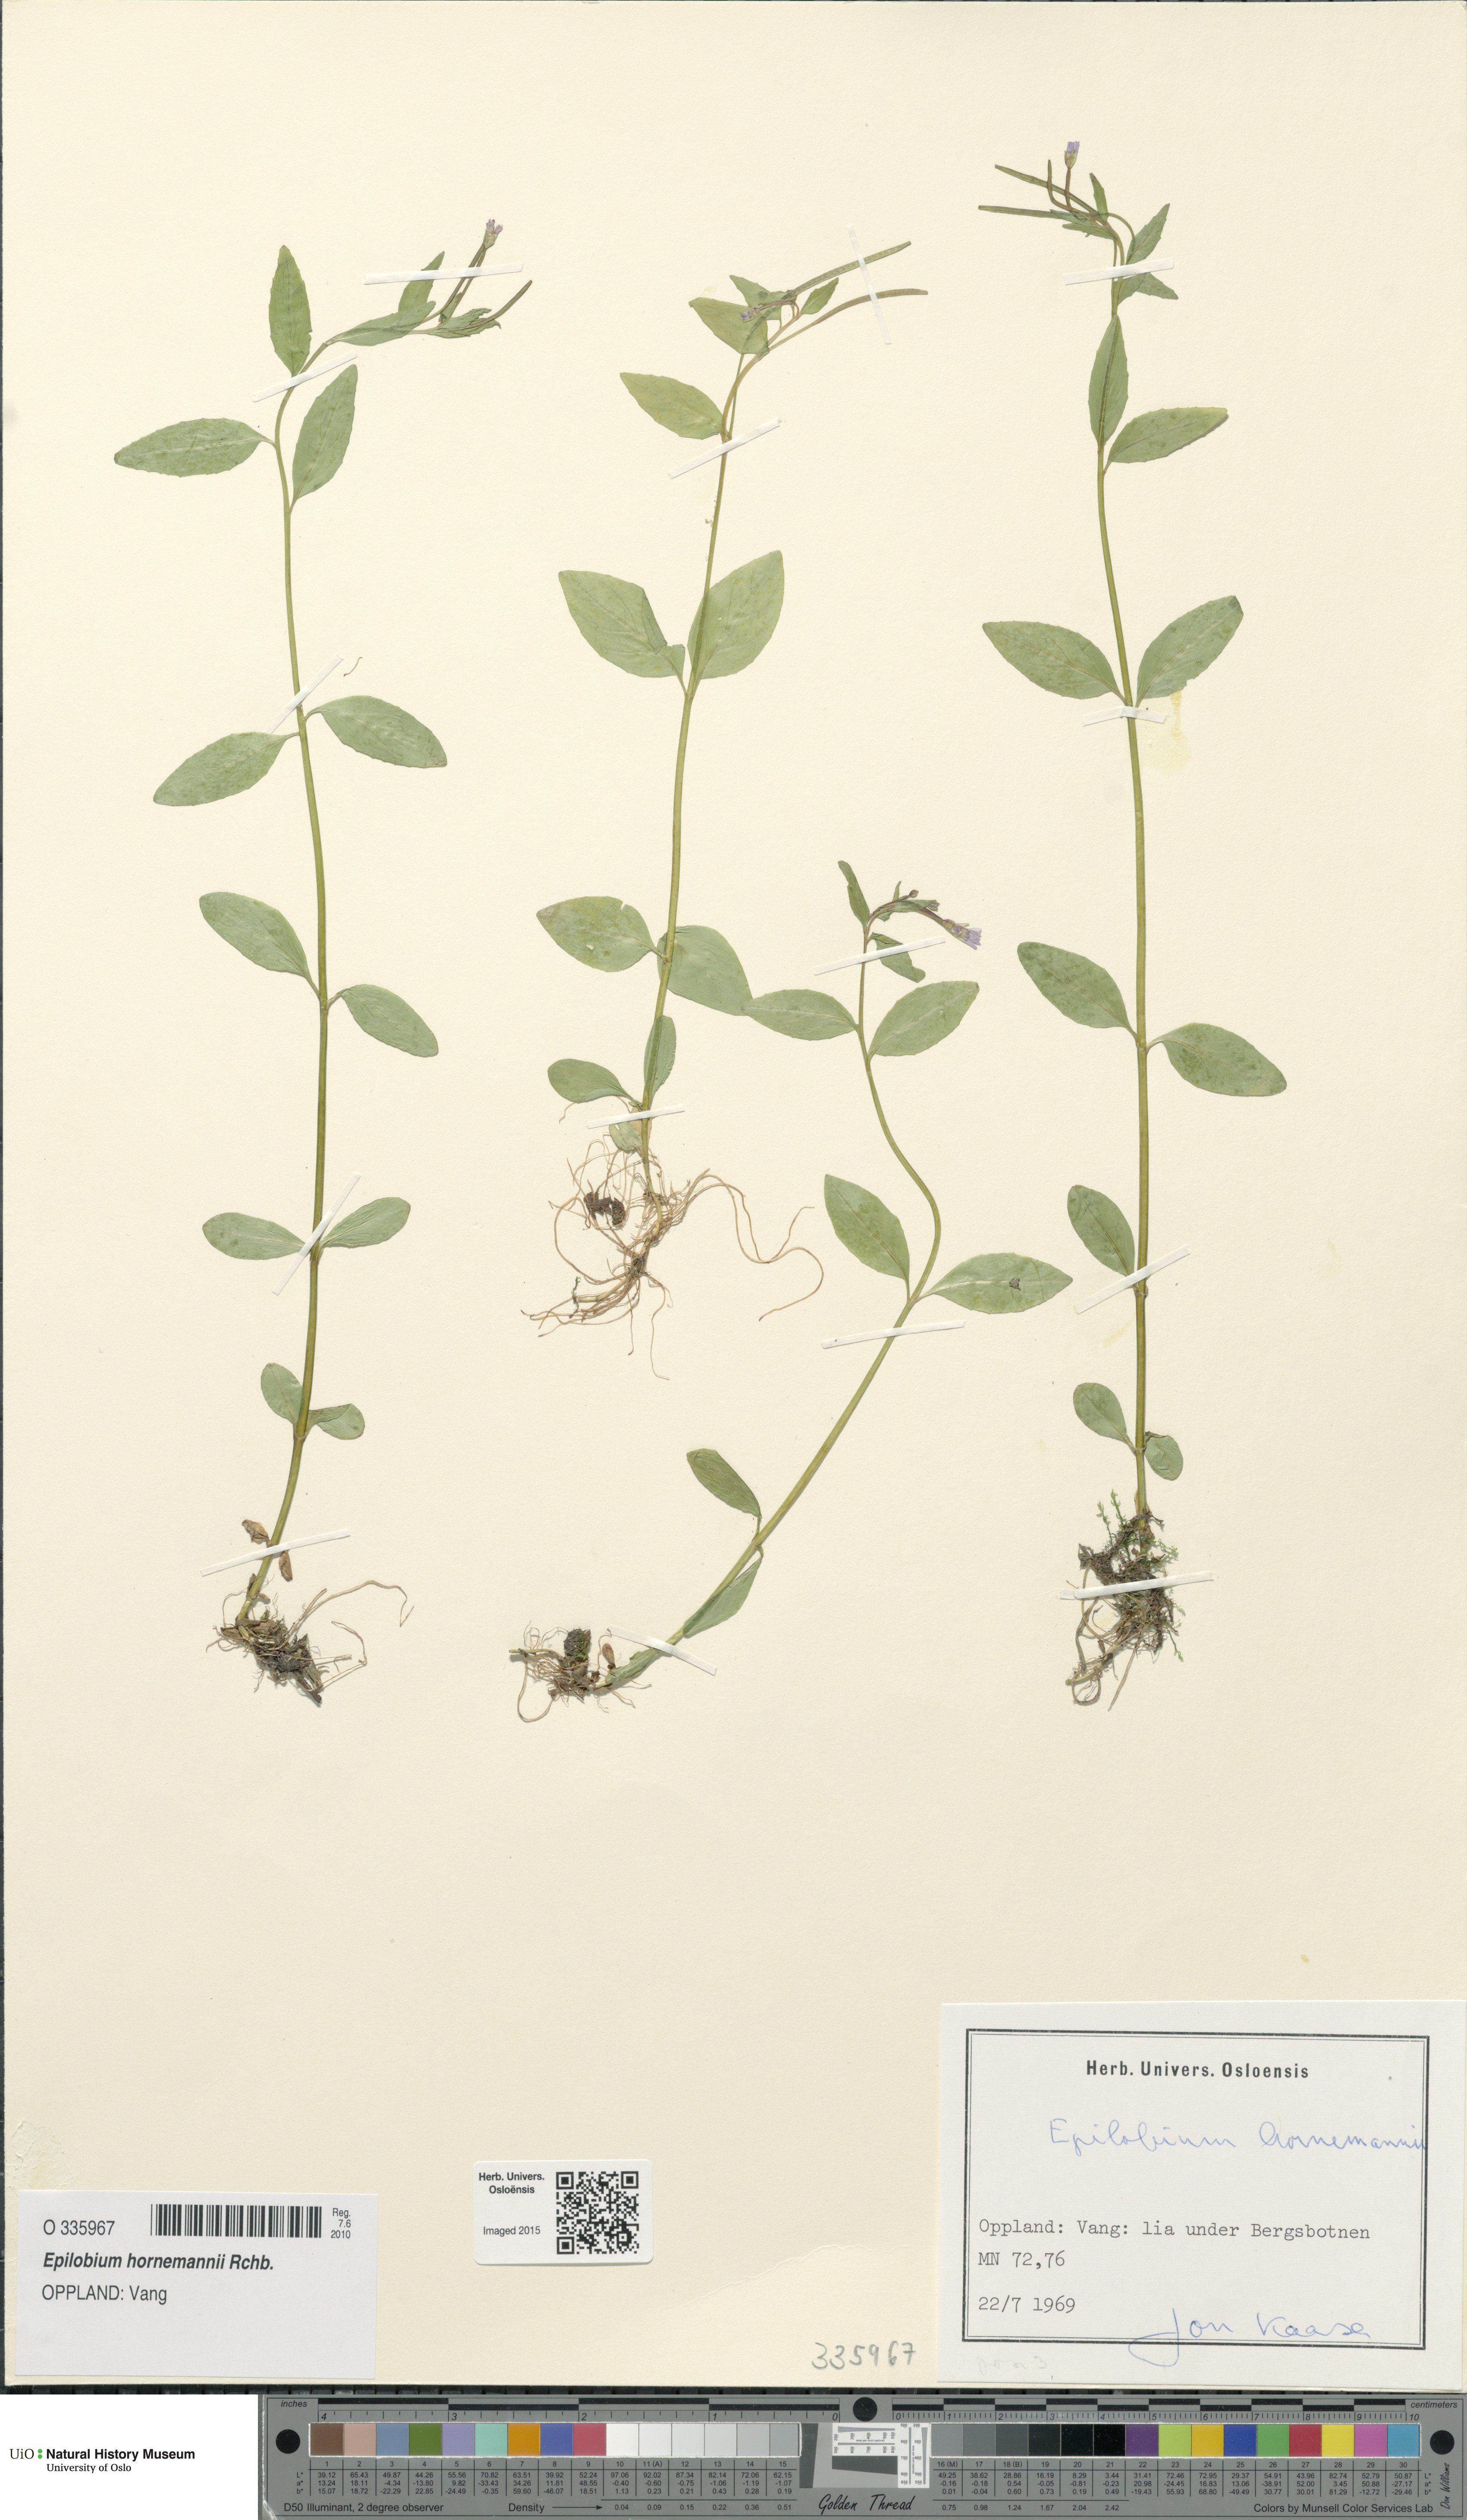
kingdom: Plantae
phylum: Tracheophyta
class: Magnoliopsida
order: Myrtales
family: Onagraceae
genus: Epilobium
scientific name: Epilobium hornemannii
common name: Hornemann's willowherb
